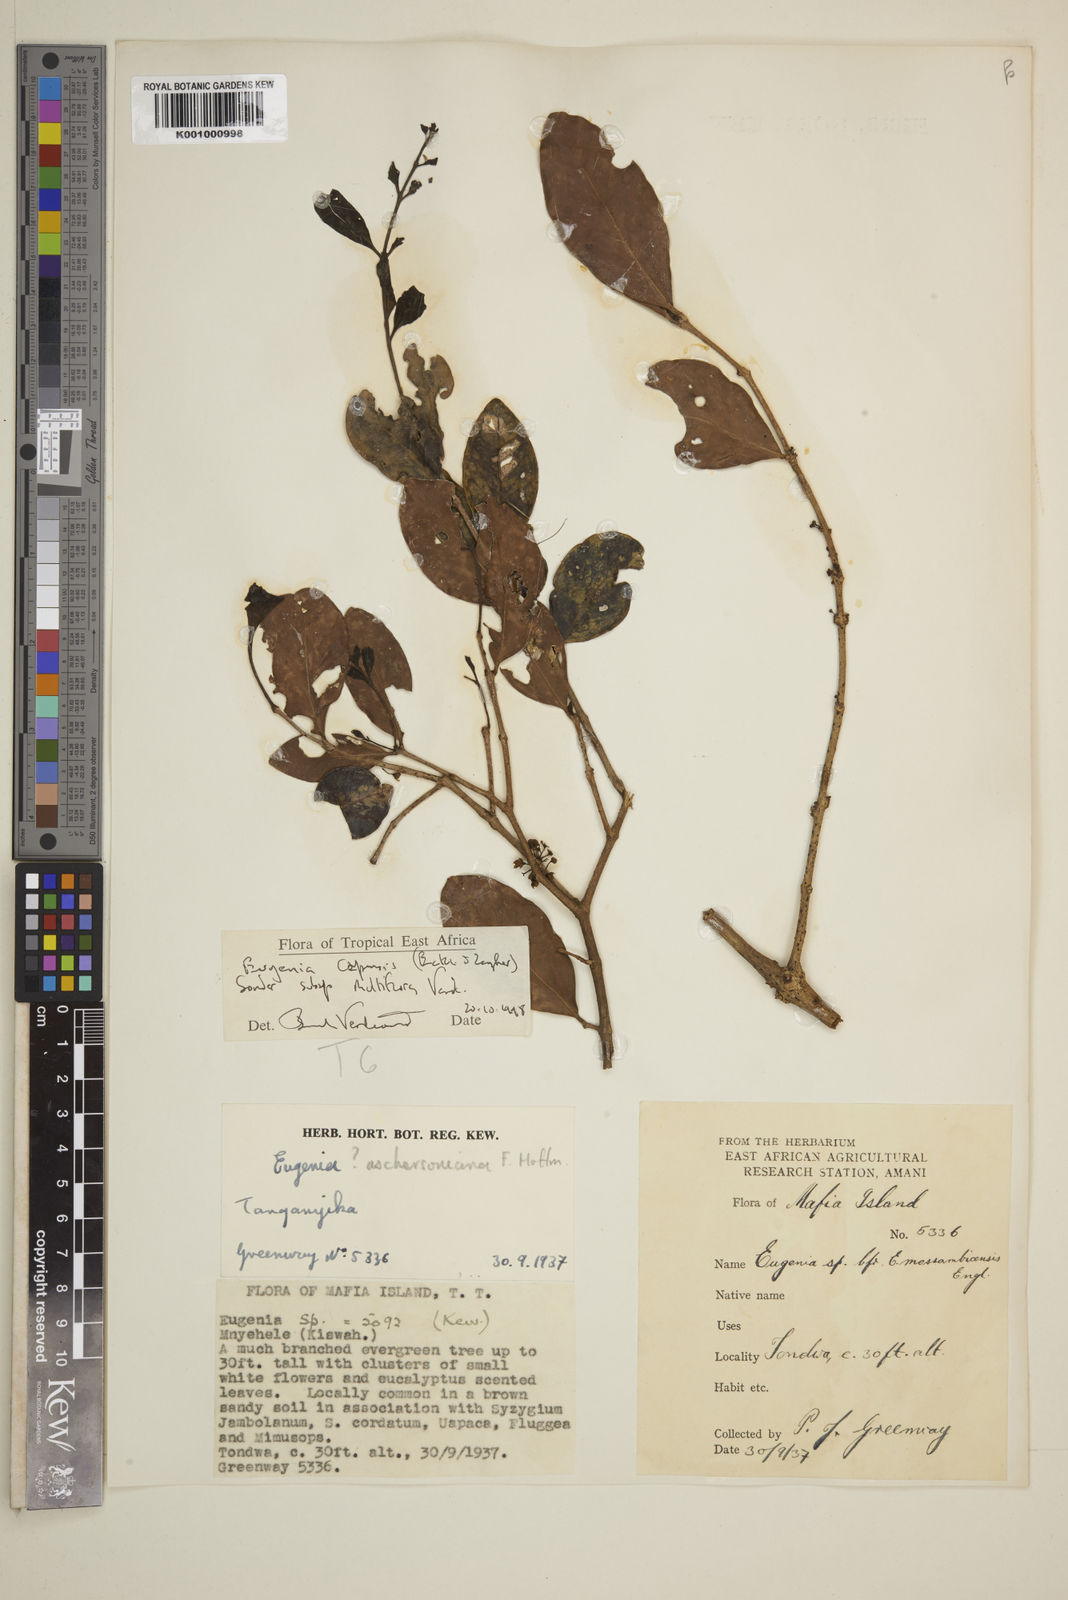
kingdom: Plantae
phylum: Tracheophyta
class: Magnoliopsida
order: Myrtales
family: Myrtaceae
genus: Eugenia
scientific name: Eugenia capensis
